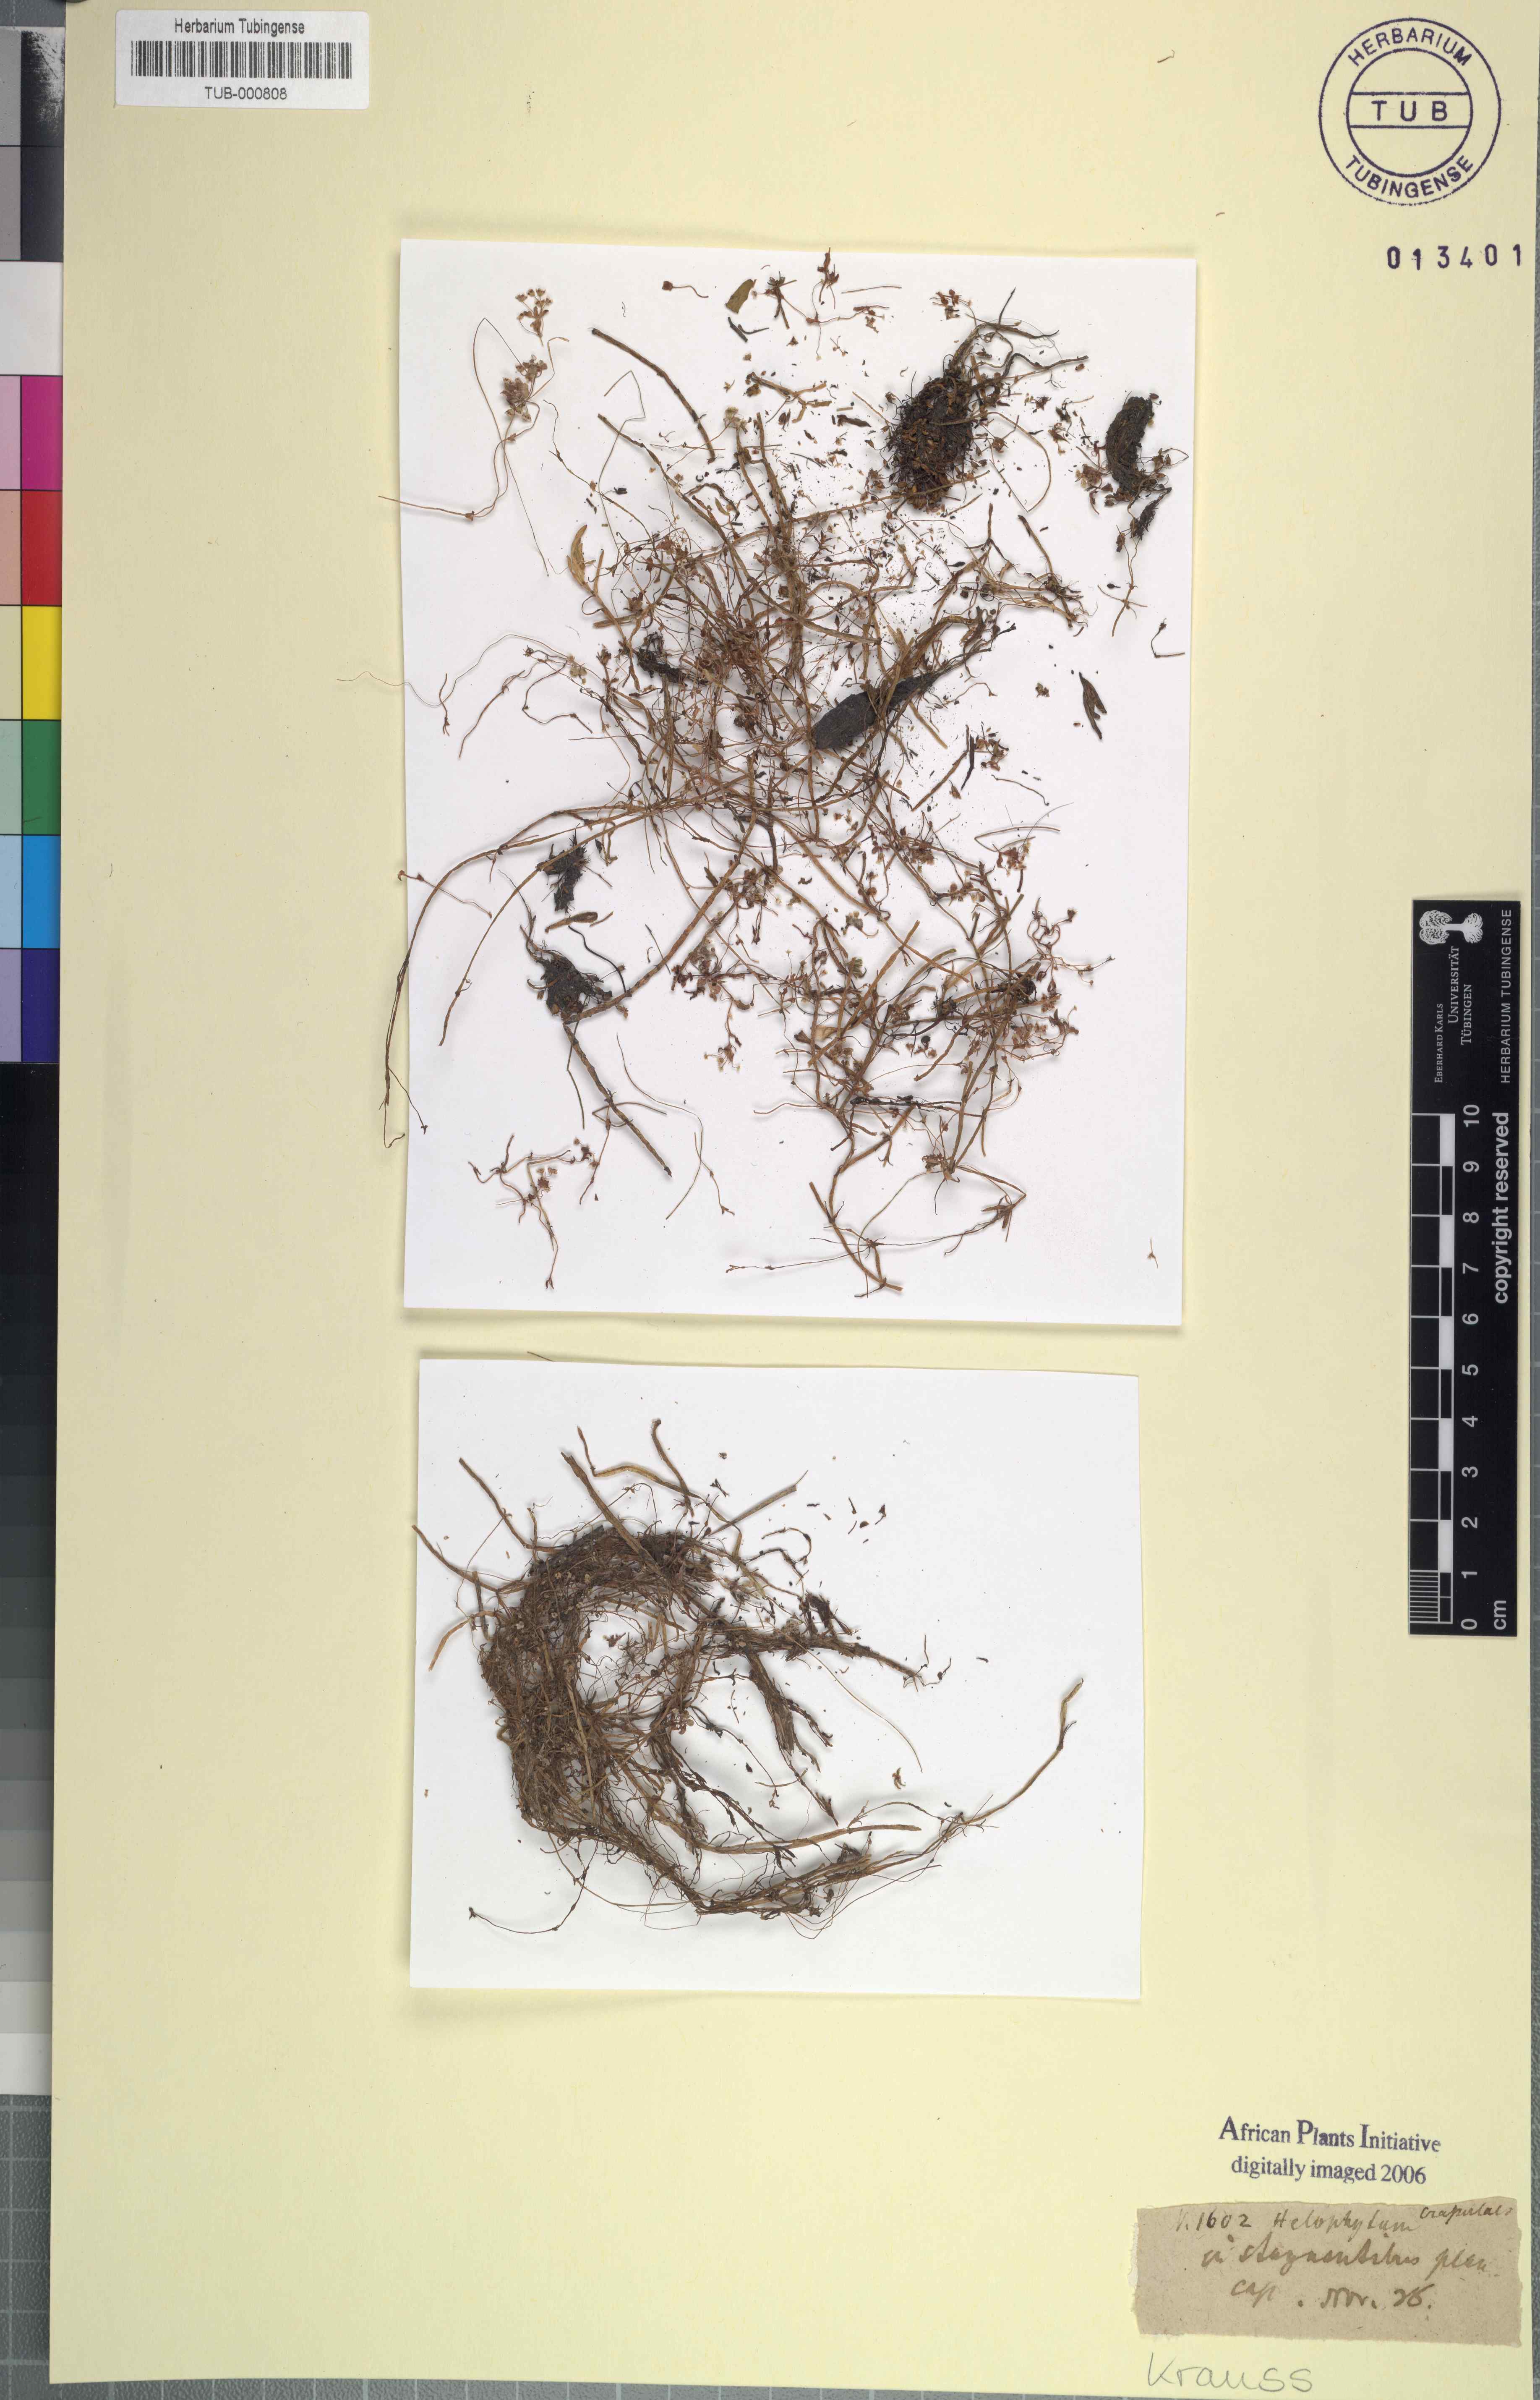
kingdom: Plantae
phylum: Tracheophyta
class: Magnoliopsida
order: Saxifragales
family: Crassulaceae
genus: Crassula
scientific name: Crassula
